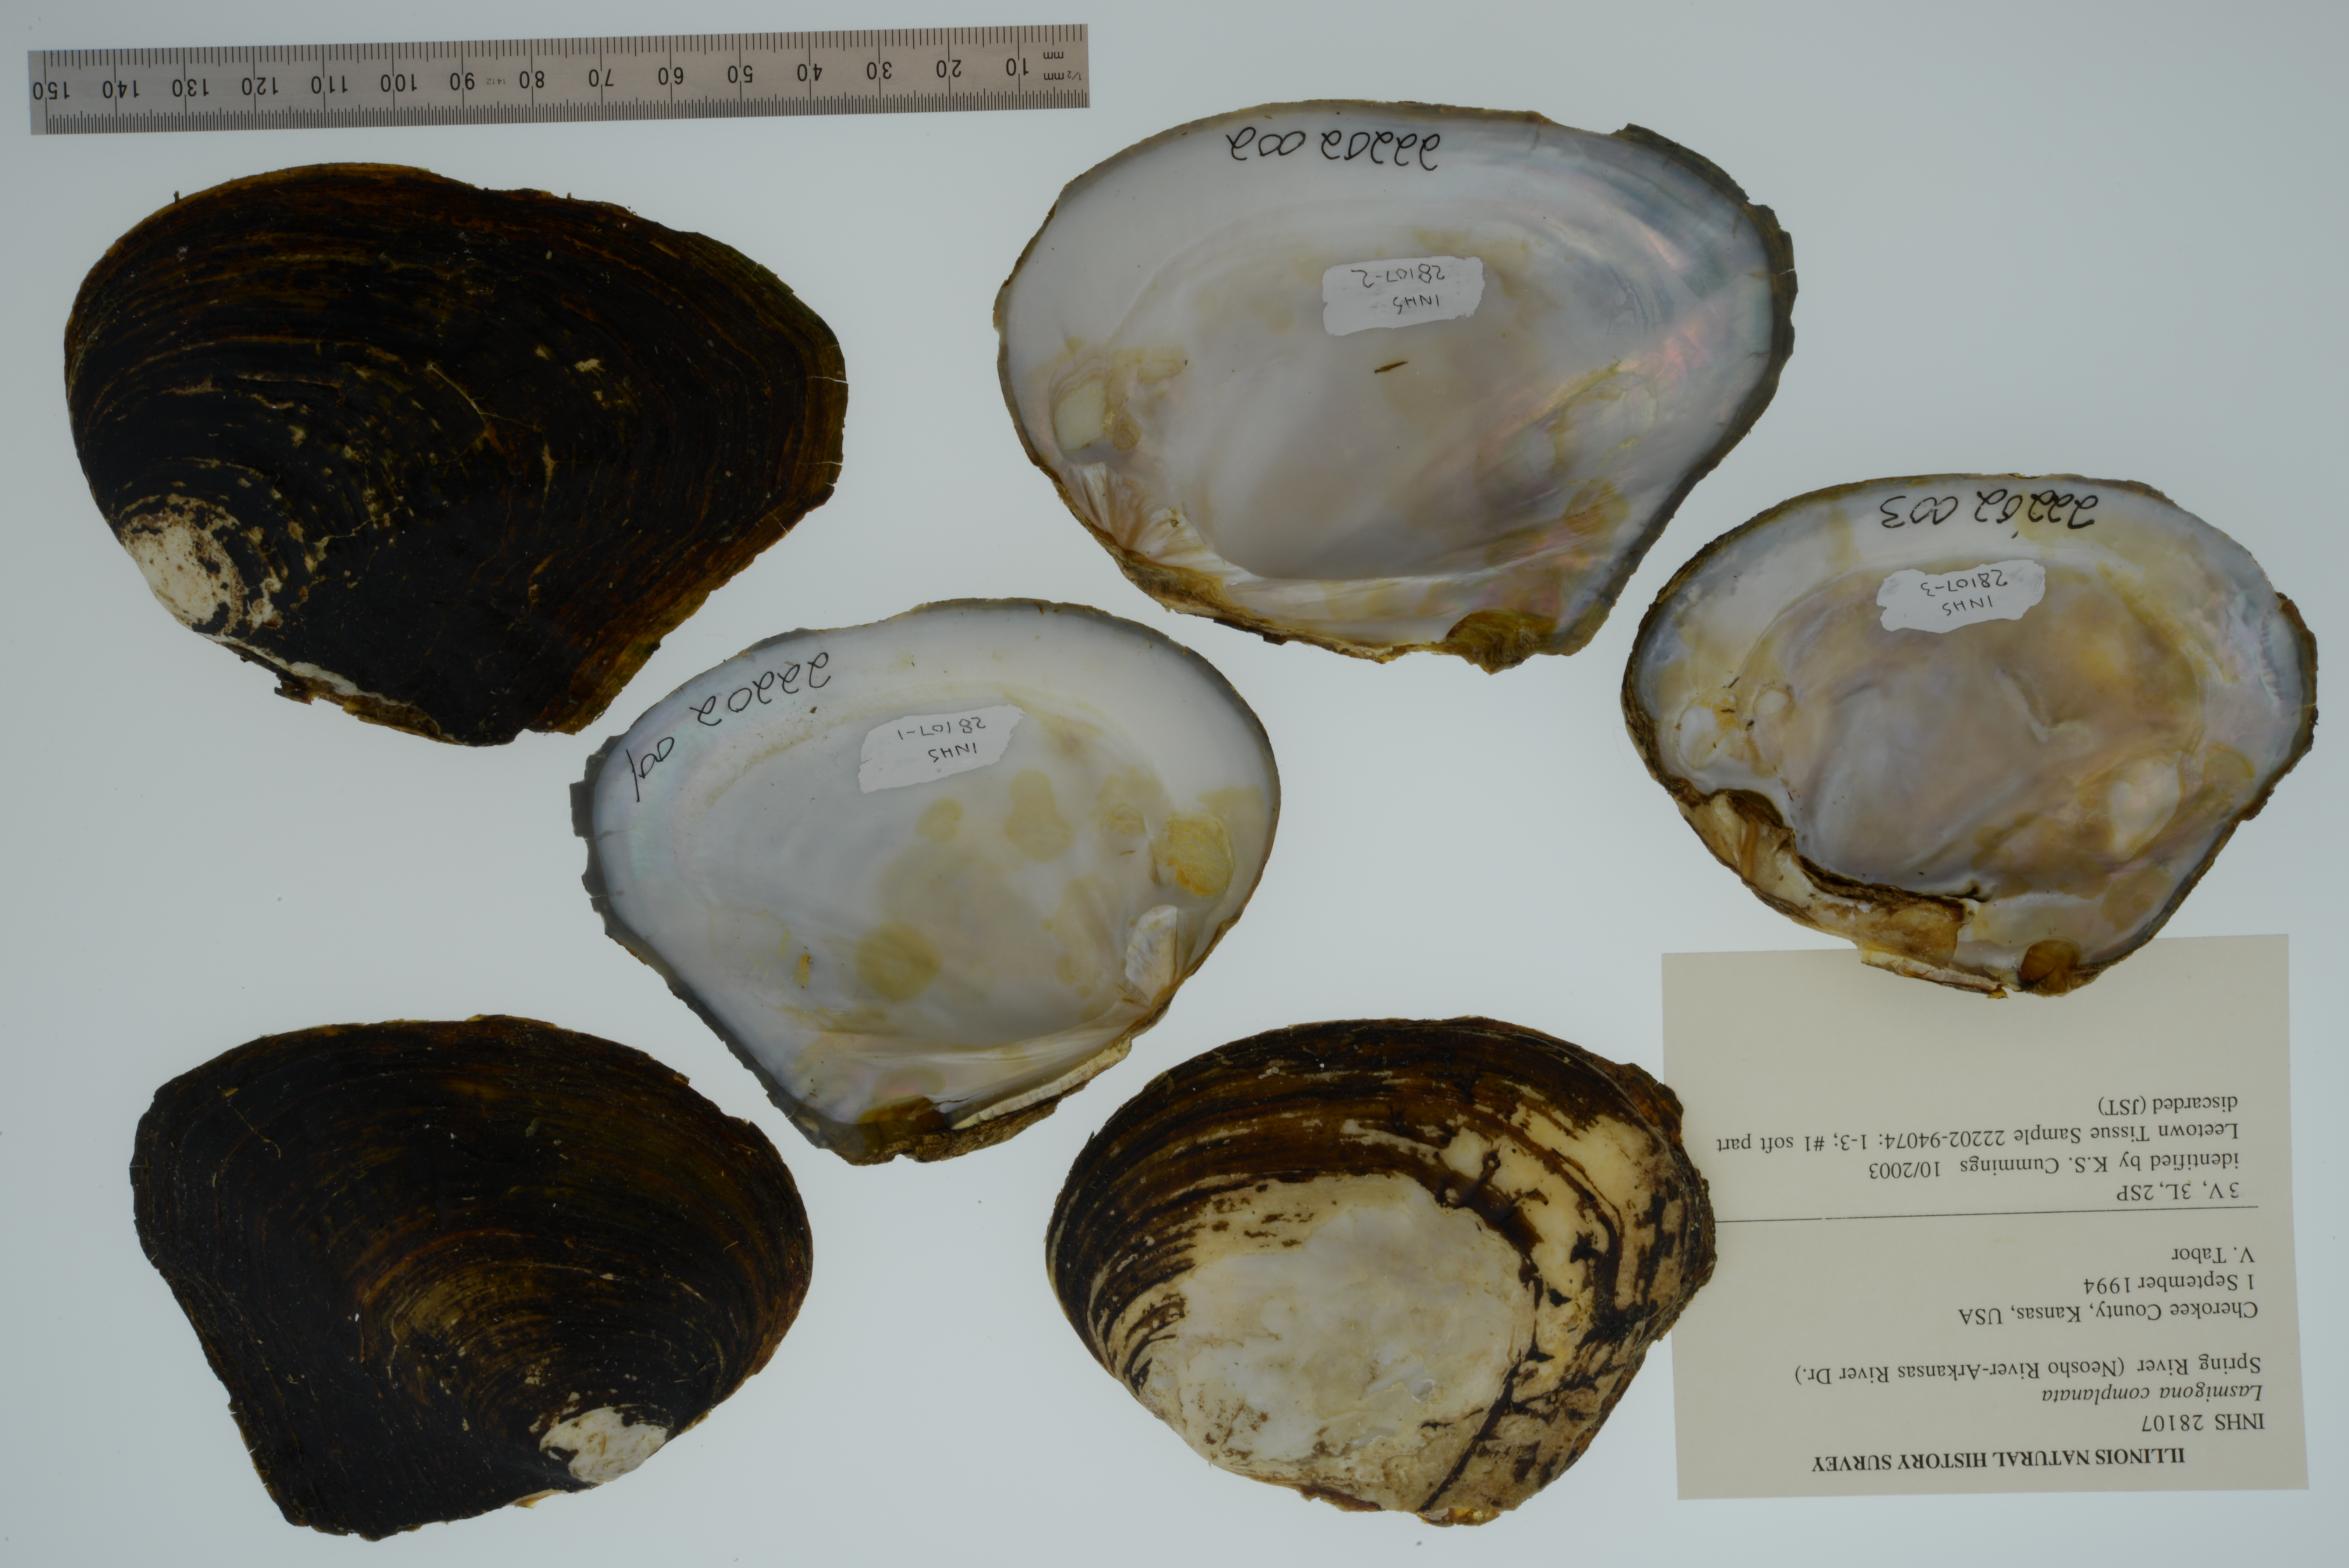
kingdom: Animalia
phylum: Mollusca
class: Bivalvia
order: Unionida
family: Unionidae
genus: Lasmigona
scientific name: Lasmigona complanata
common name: White heelsplitter
